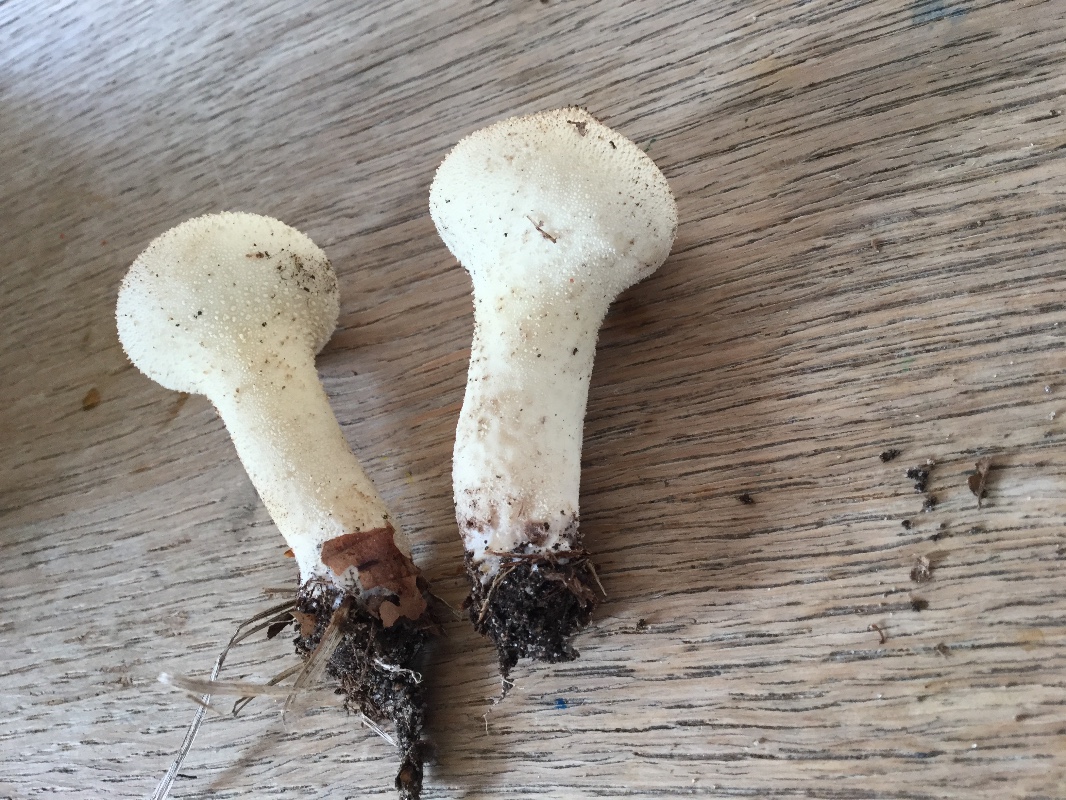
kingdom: Fungi
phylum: Basidiomycota
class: Agaricomycetes
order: Agaricales
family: Lycoperdaceae
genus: Lycoperdon
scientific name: Lycoperdon excipuliforme
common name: højstokket støvbold
